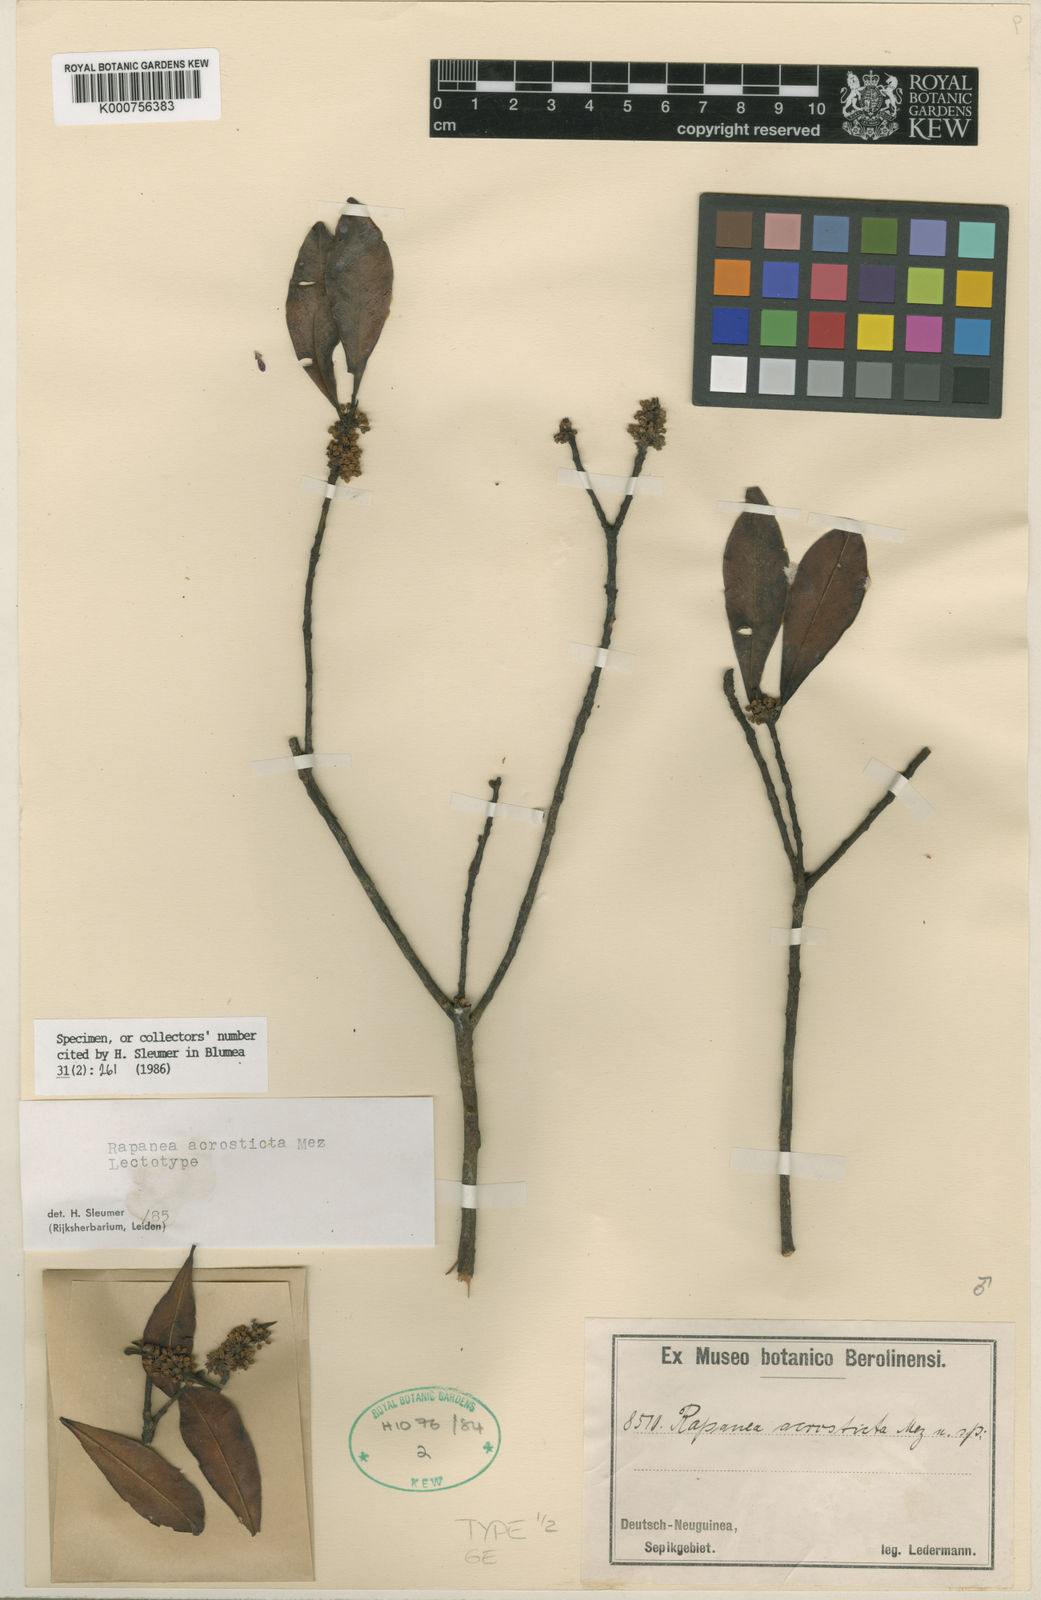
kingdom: Plantae
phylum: Tracheophyta
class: Magnoliopsida
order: Ericales
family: Primulaceae
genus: Myrsine
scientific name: Myrsine
